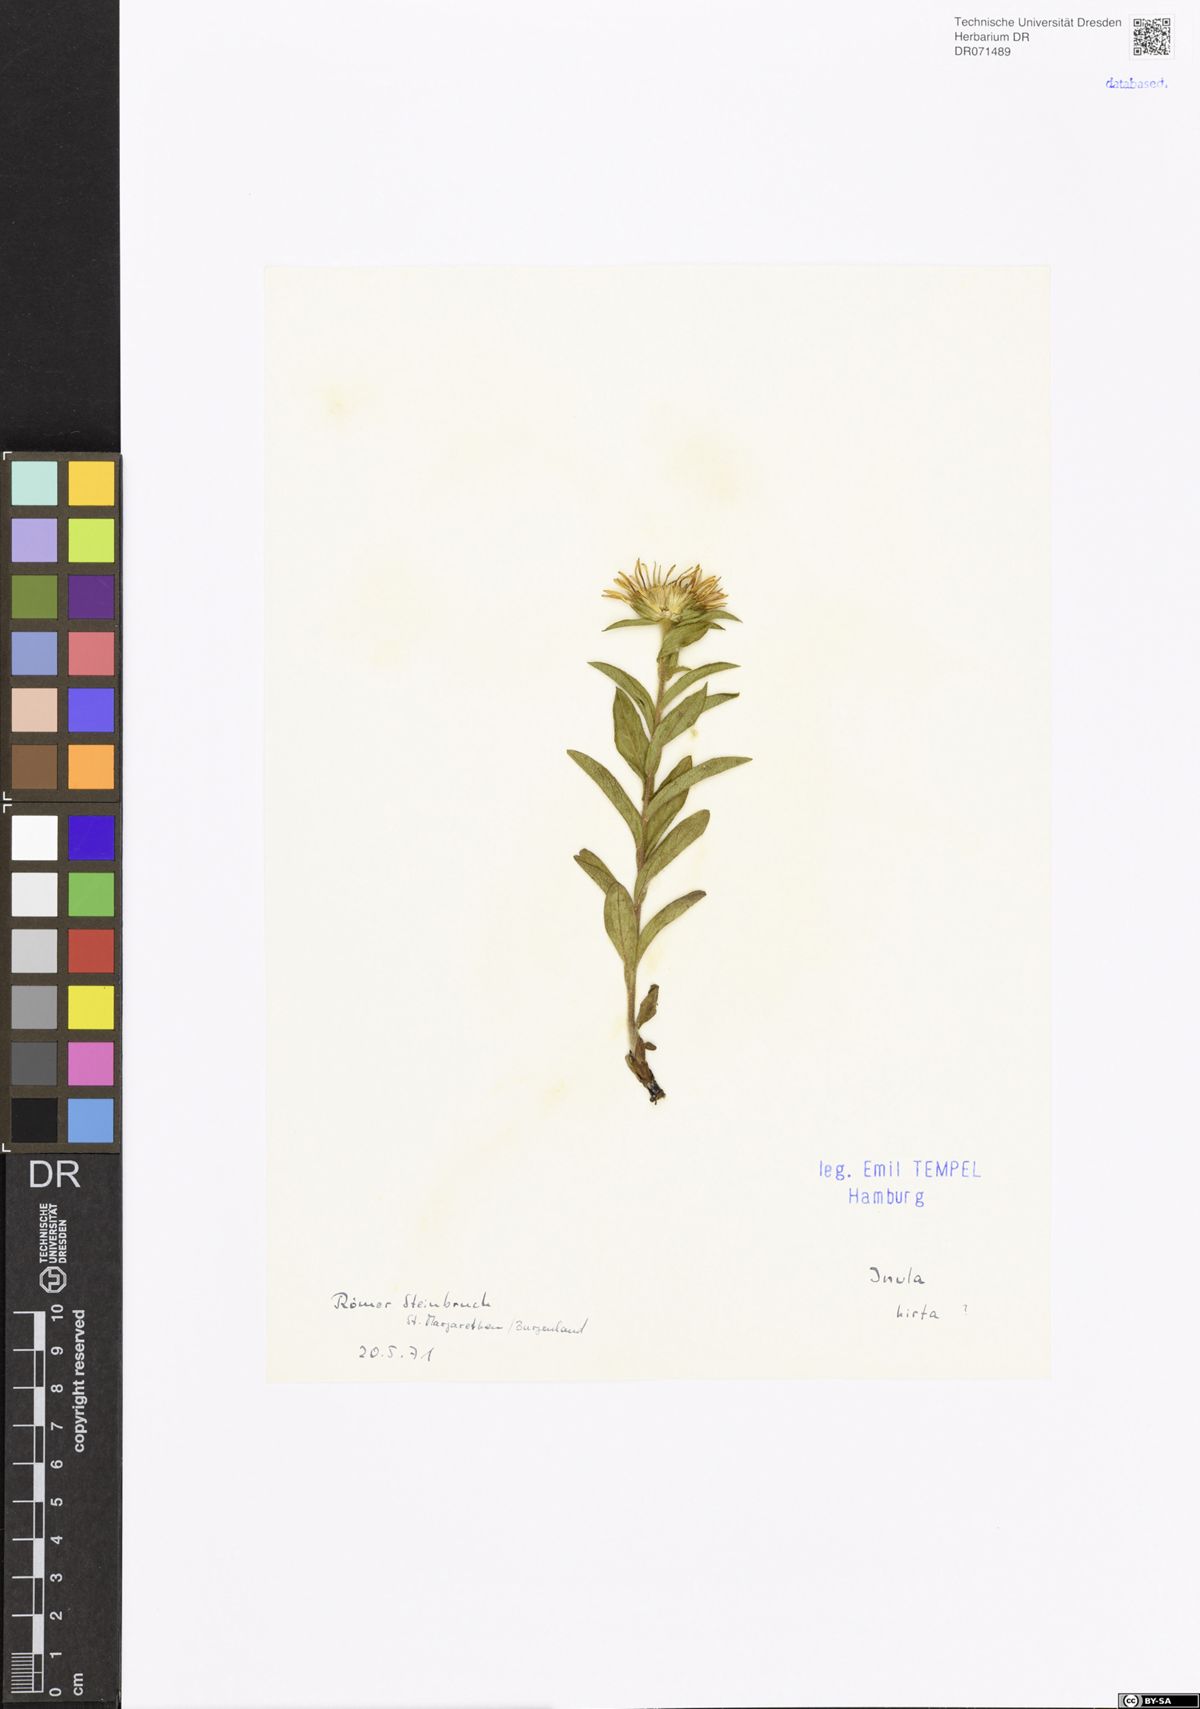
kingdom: Plantae
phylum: Tracheophyta
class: Magnoliopsida
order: Asterales
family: Asteraceae
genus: Pentanema
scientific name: Pentanema hirtum
